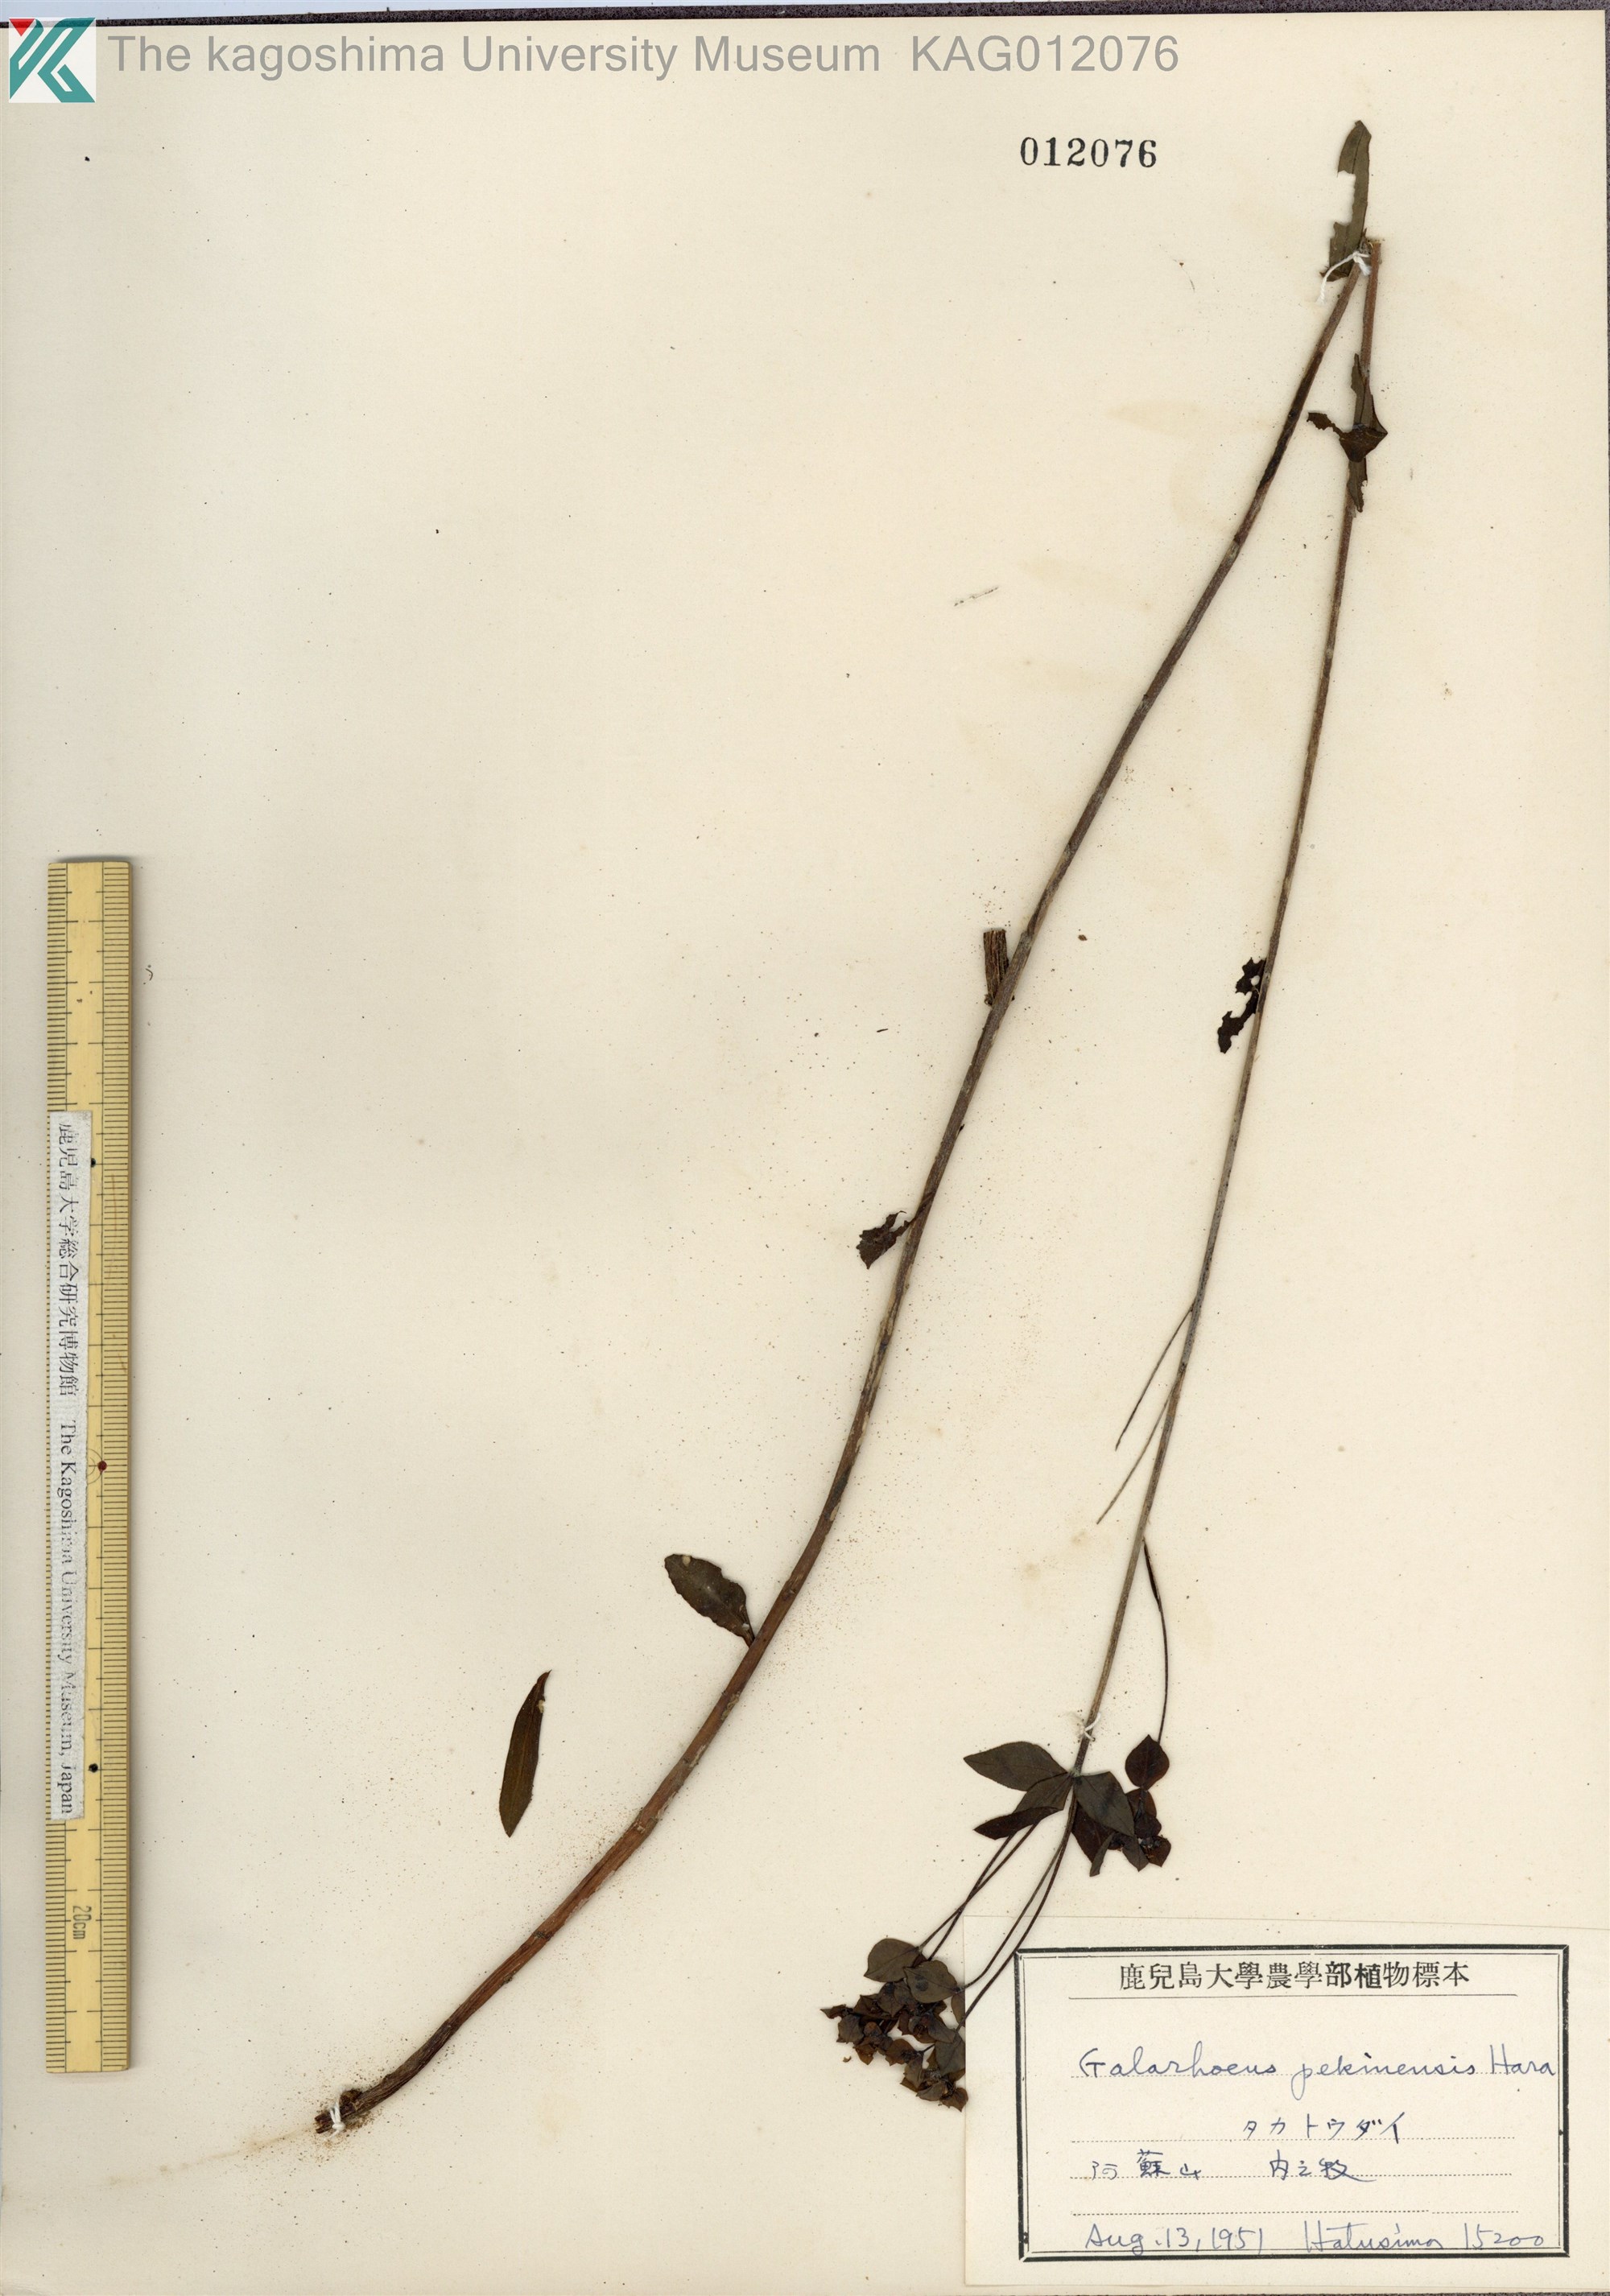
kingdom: Plantae
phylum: Tracheophyta
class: Magnoliopsida
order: Malpighiales
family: Euphorbiaceae
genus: Euphorbia
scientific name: Euphorbia pekinensis
